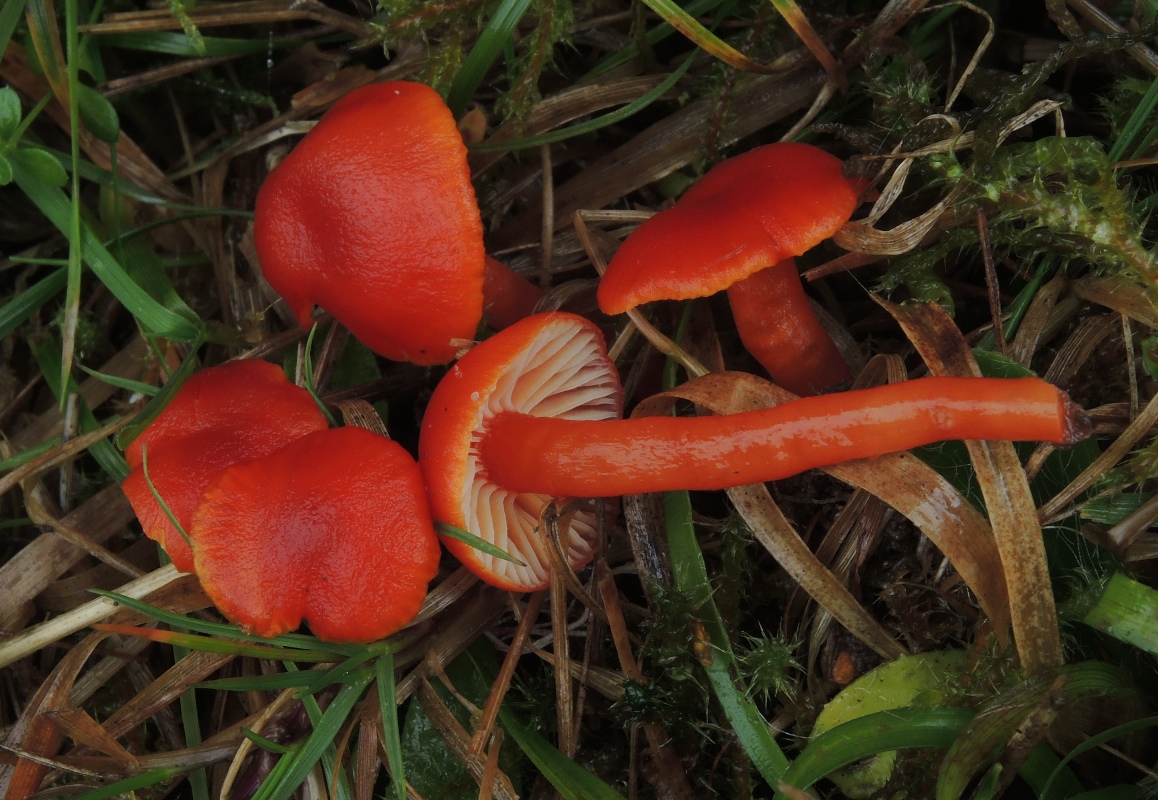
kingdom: Fungi
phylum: Basidiomycota
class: Agaricomycetes
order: Agaricales
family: Hygrophoraceae
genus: Hygrocybe
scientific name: Hygrocybe miniata
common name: mønje-vokshat
